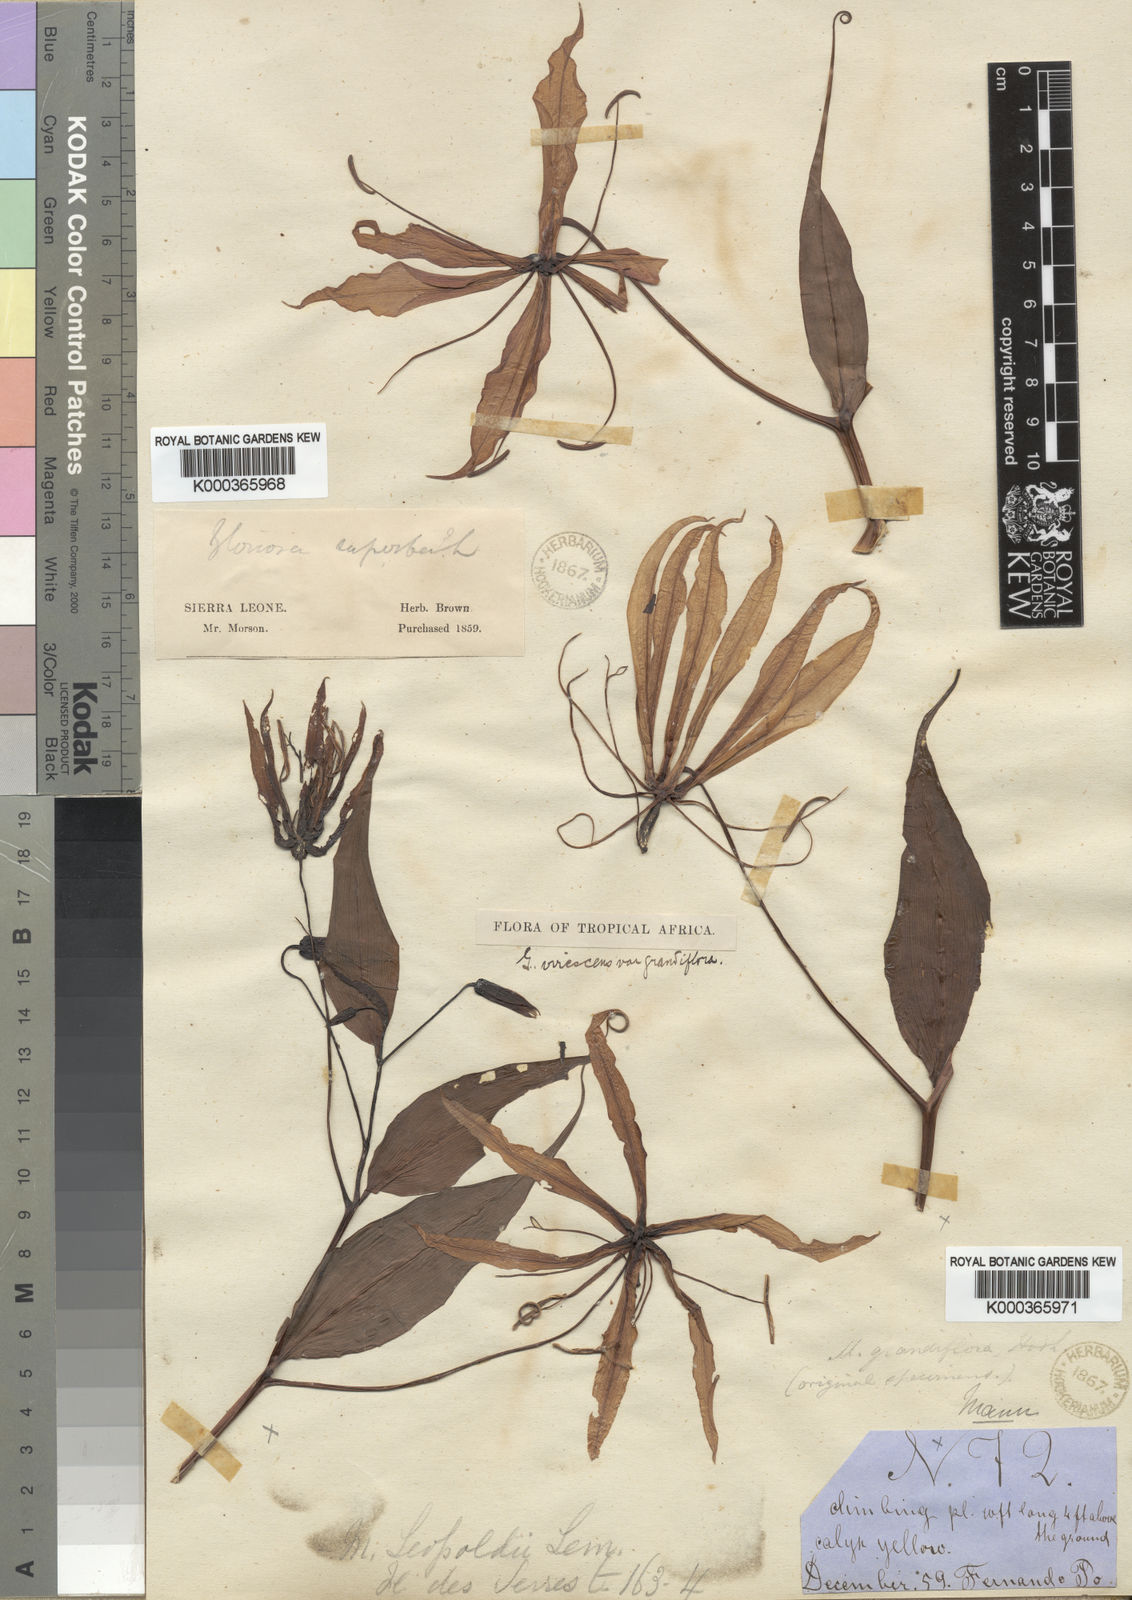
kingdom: Plantae
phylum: Tracheophyta
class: Liliopsida
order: Liliales
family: Colchicaceae
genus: Gloriosa
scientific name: Gloriosa simplex
